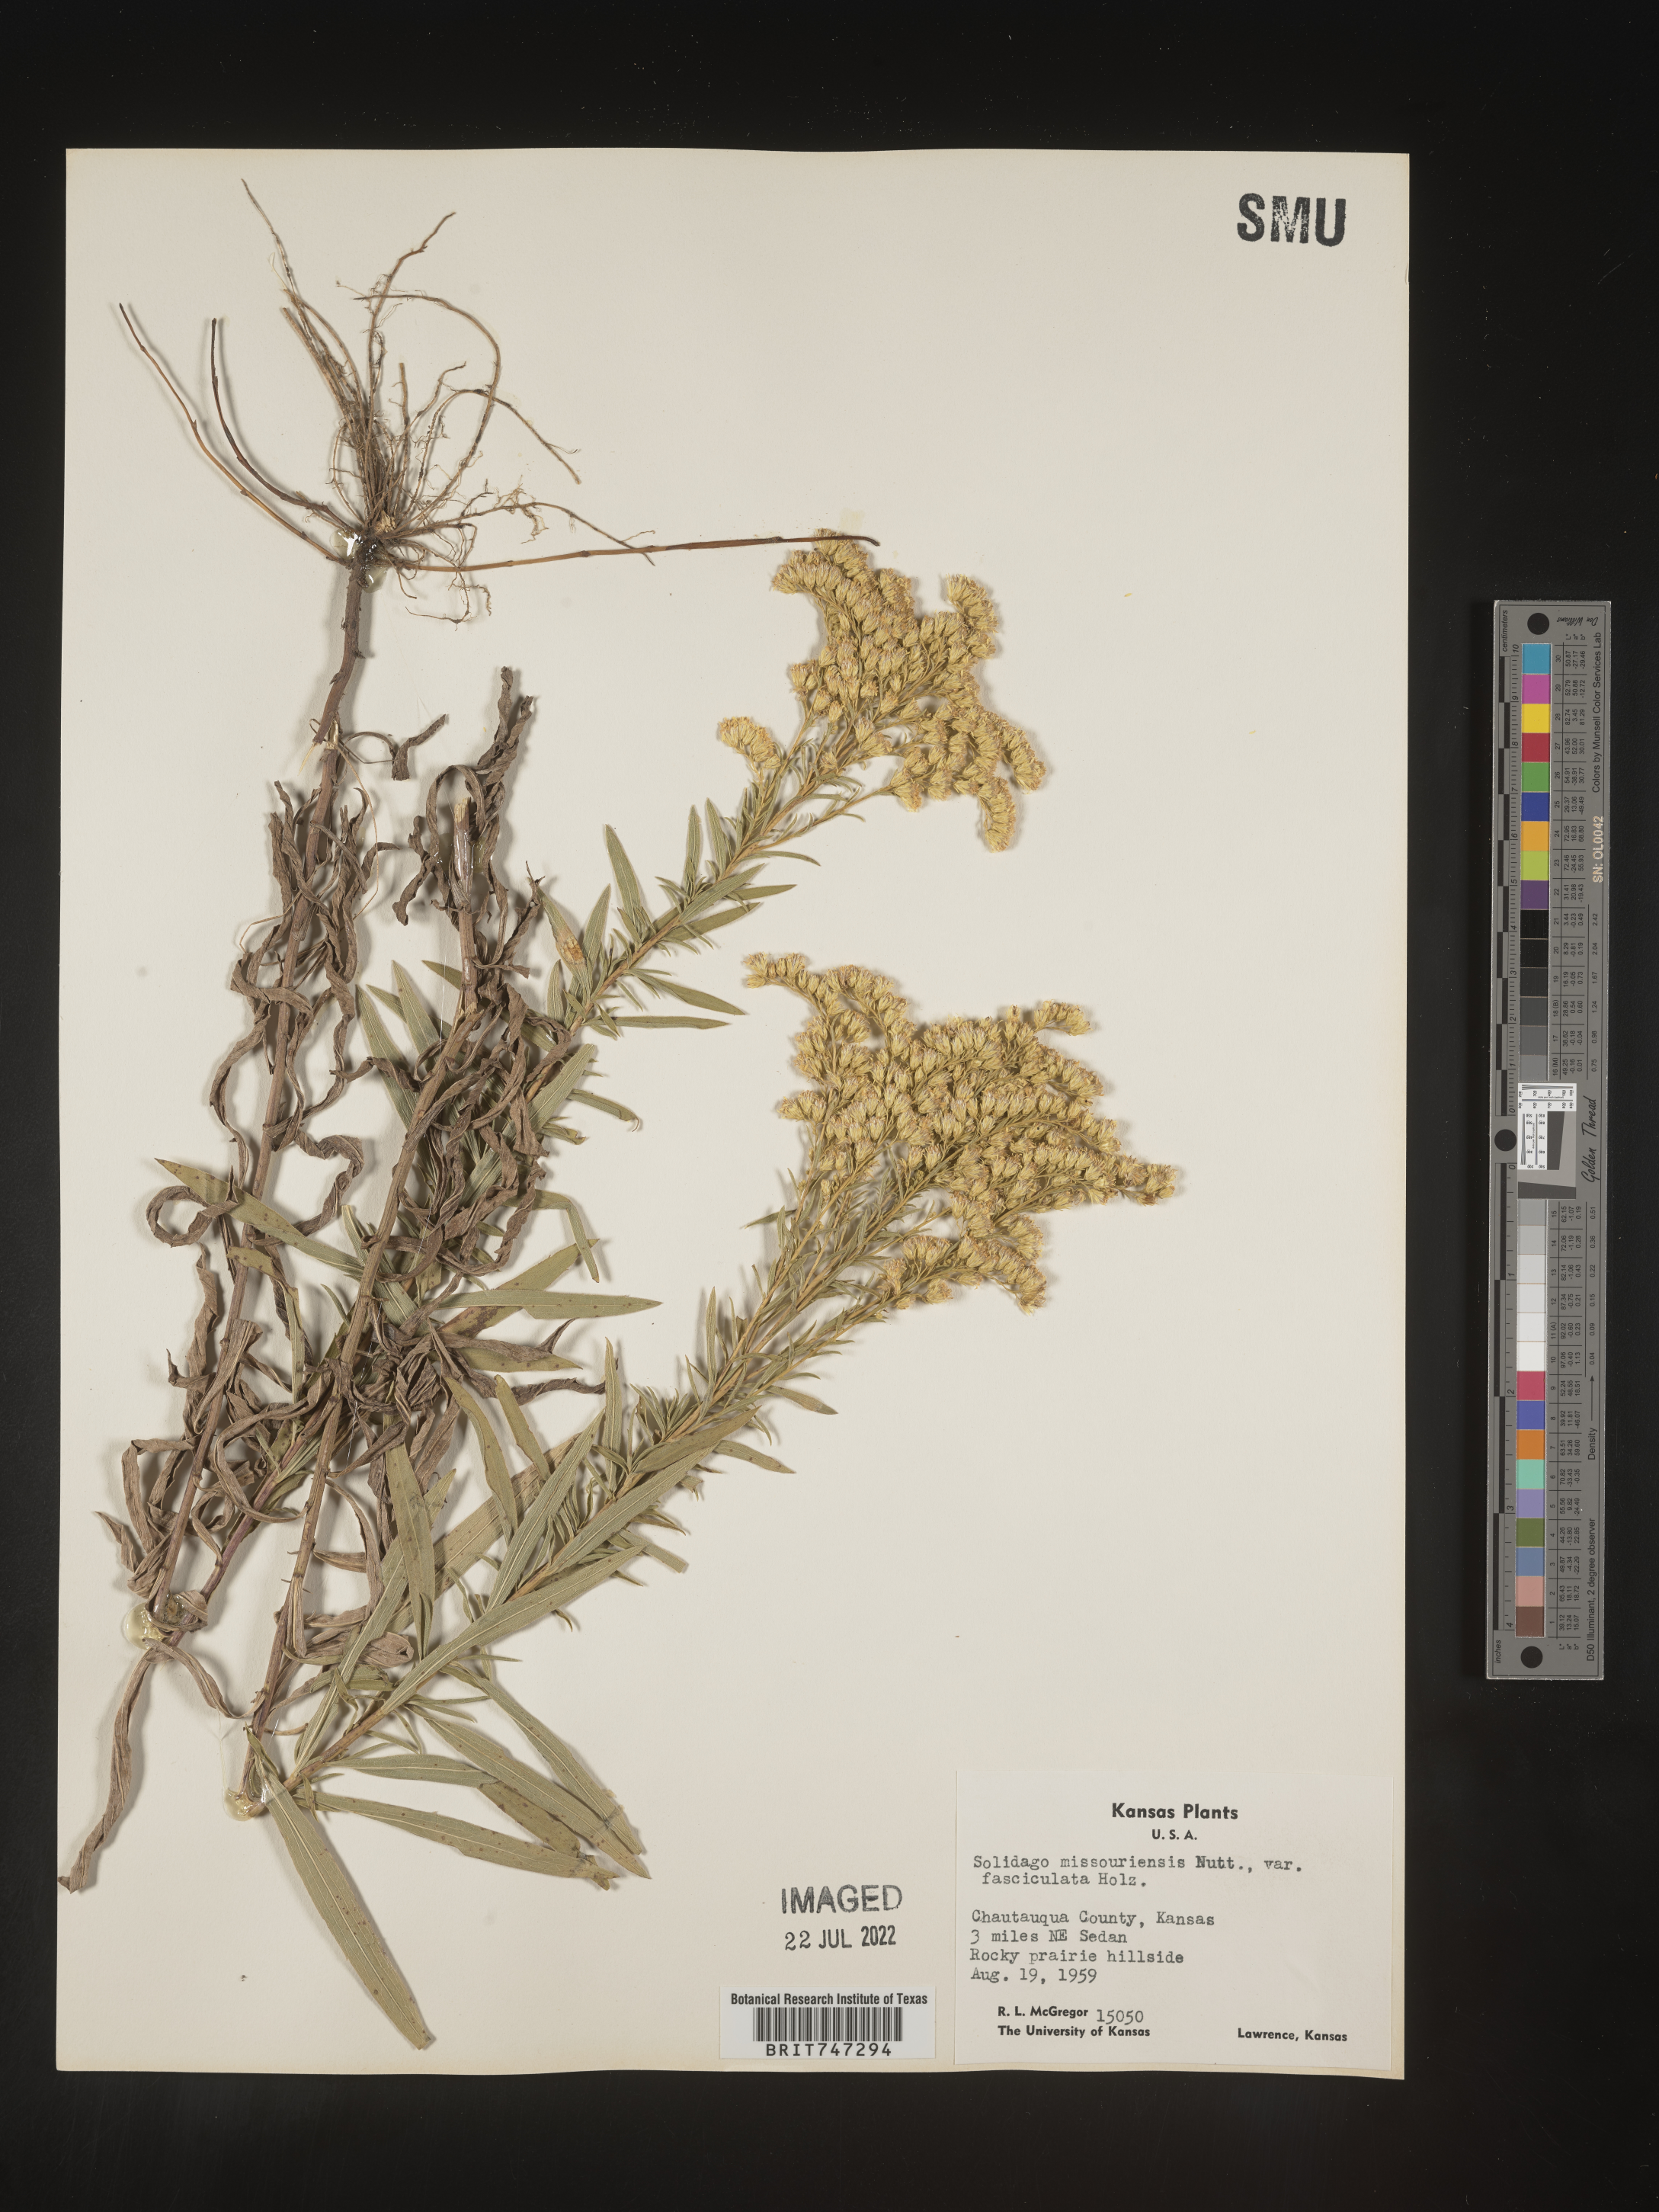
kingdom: Plantae
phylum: Tracheophyta
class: Magnoliopsida
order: Asterales
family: Asteraceae
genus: Solidago
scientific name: Solidago missouriensis
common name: Prairie goldenrod
